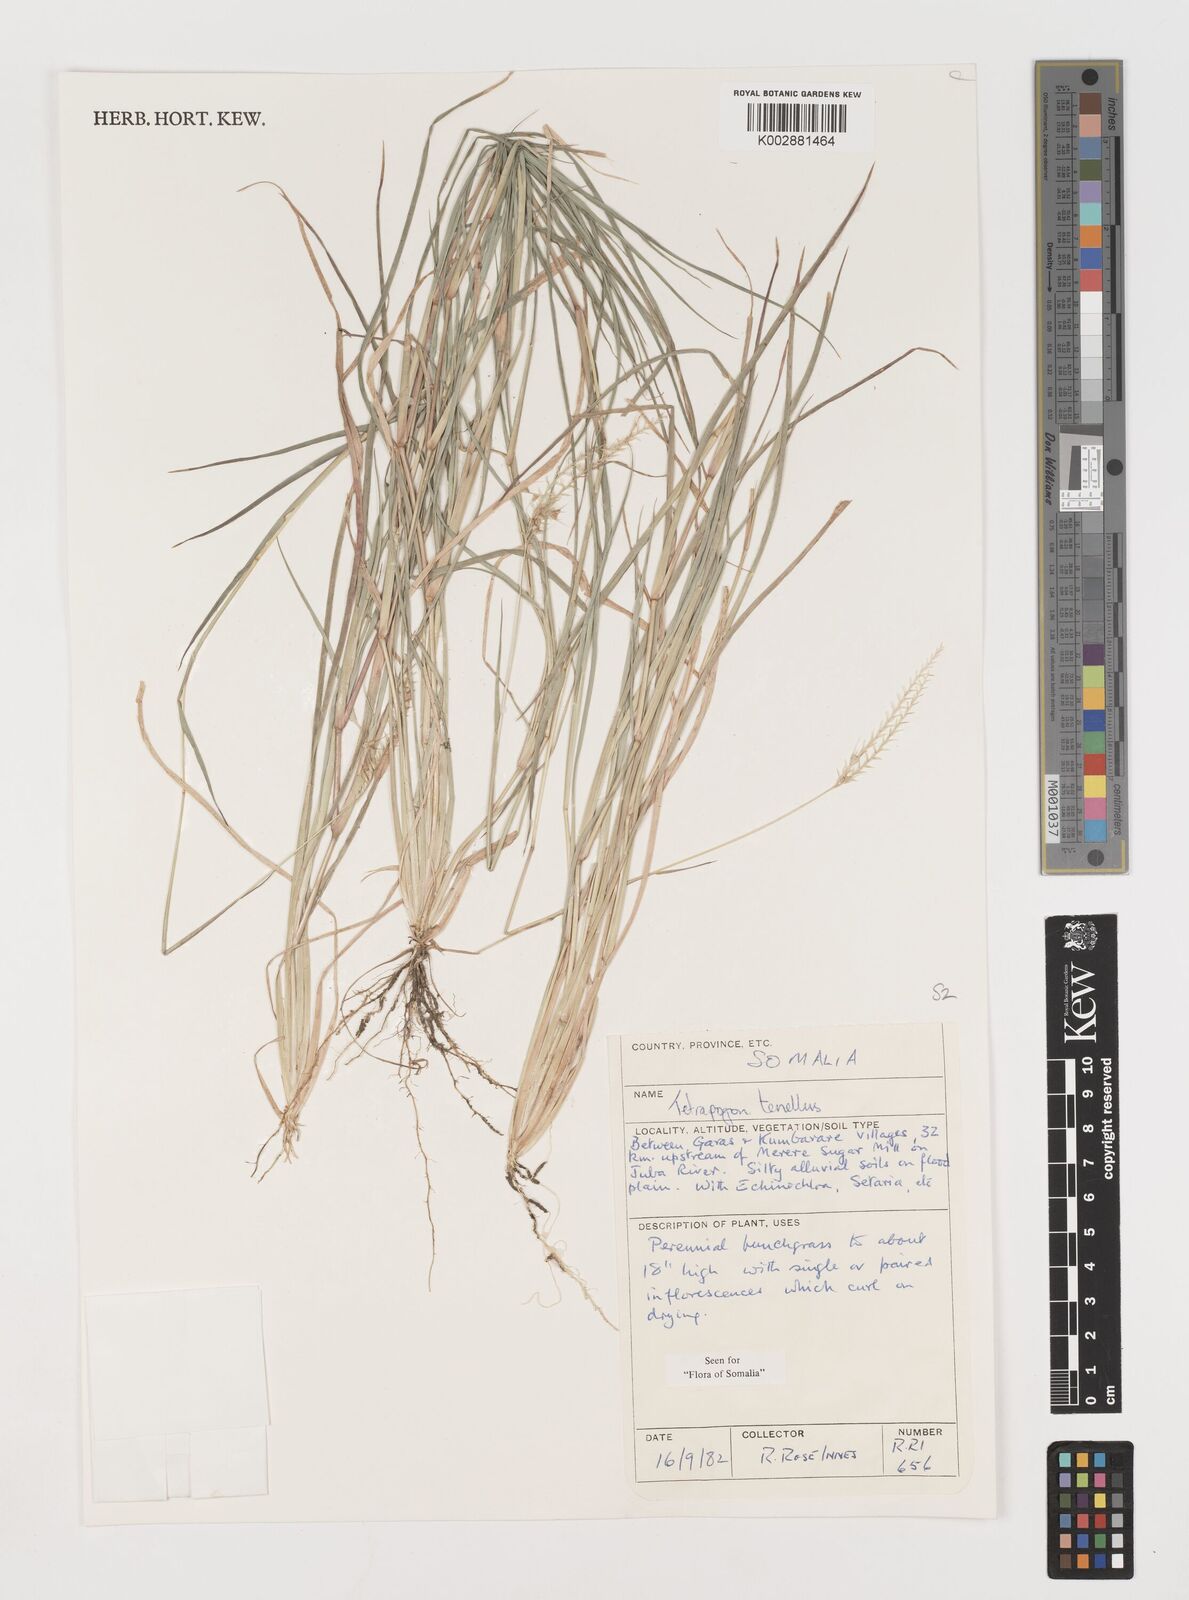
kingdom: Plantae
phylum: Tracheophyta
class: Liliopsida
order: Poales
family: Poaceae
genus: Tetrapogon
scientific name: Tetrapogon tenellus
